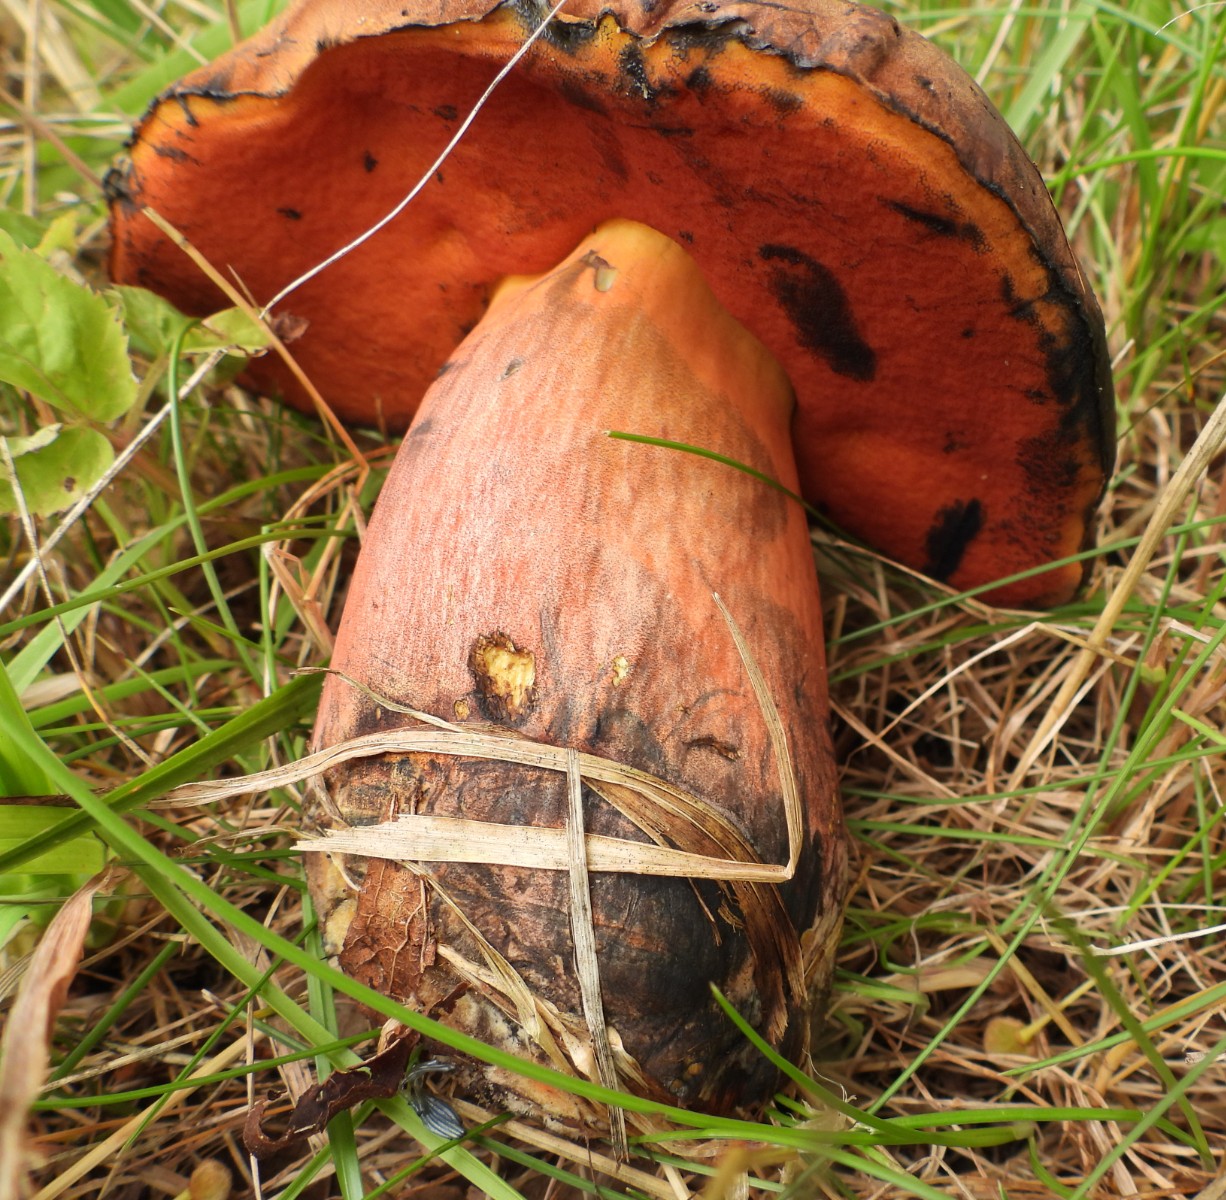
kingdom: Fungi
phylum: Basidiomycota
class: Agaricomycetes
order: Boletales
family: Boletaceae
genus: Neoboletus
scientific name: Neoboletus
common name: indigorørhat
